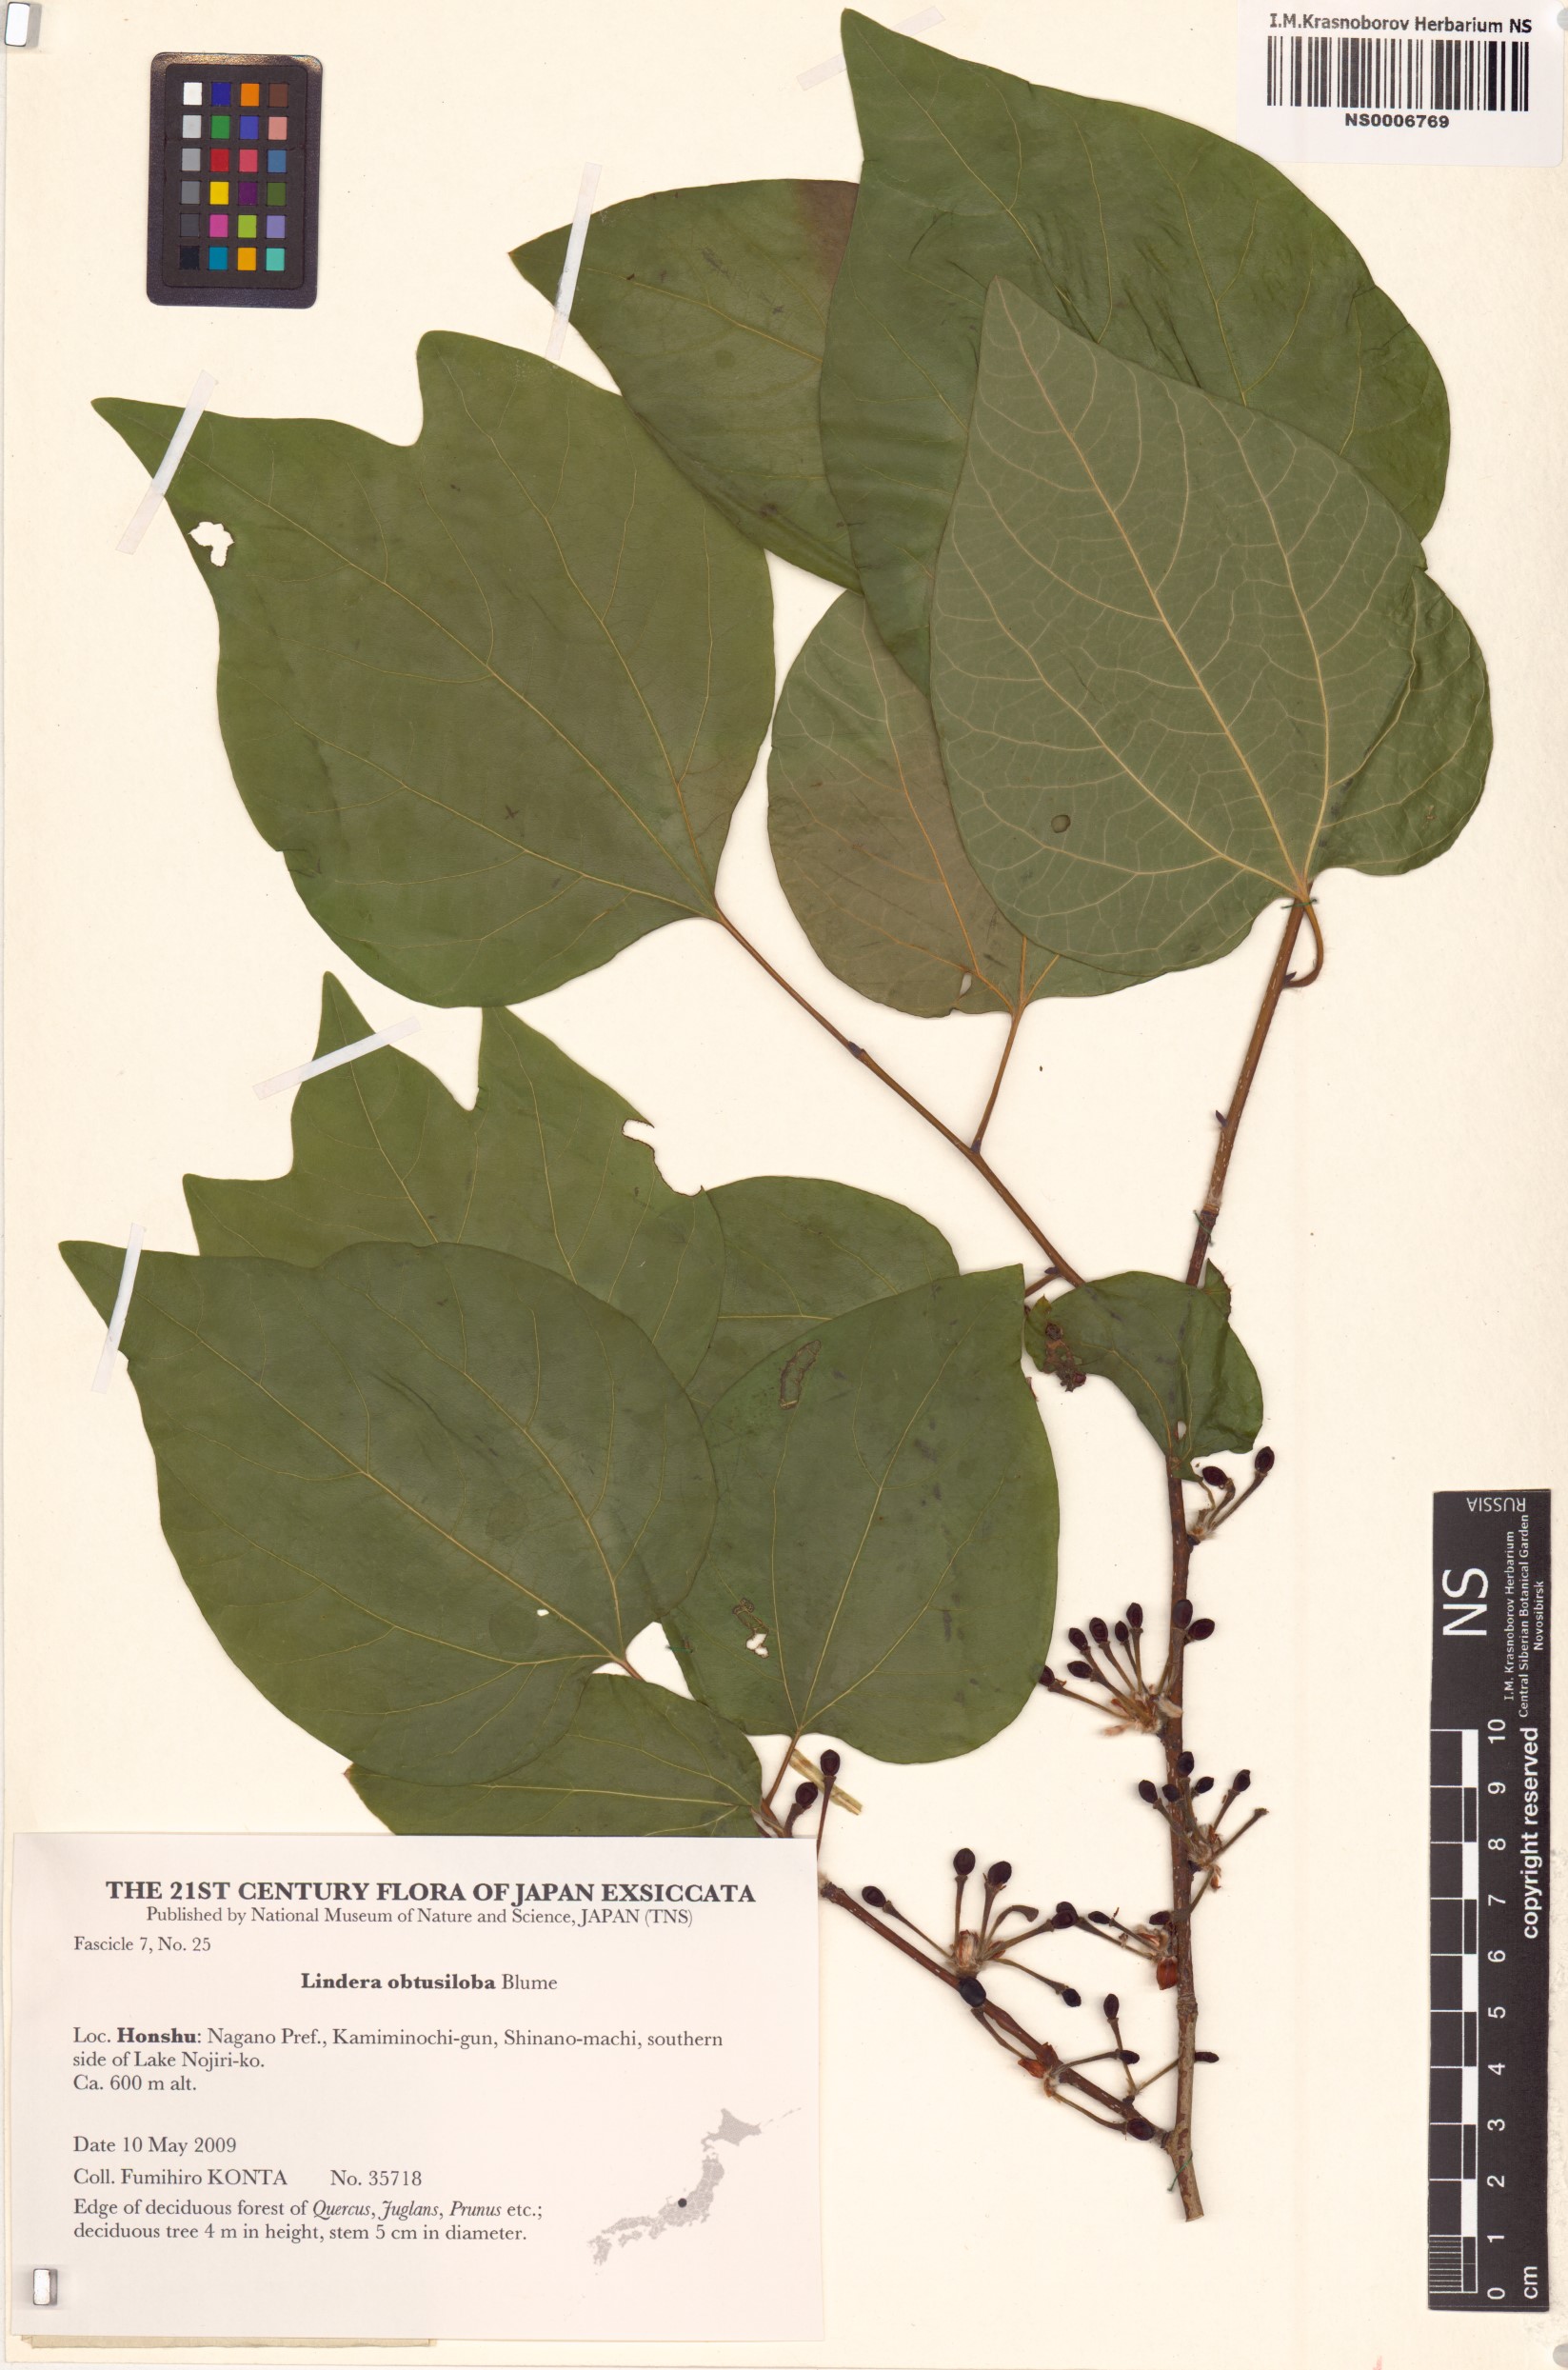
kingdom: Plantae
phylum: Tracheophyta
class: Magnoliopsida
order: Laurales
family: Lauraceae
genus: Lindera
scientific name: Lindera obtusiloba
